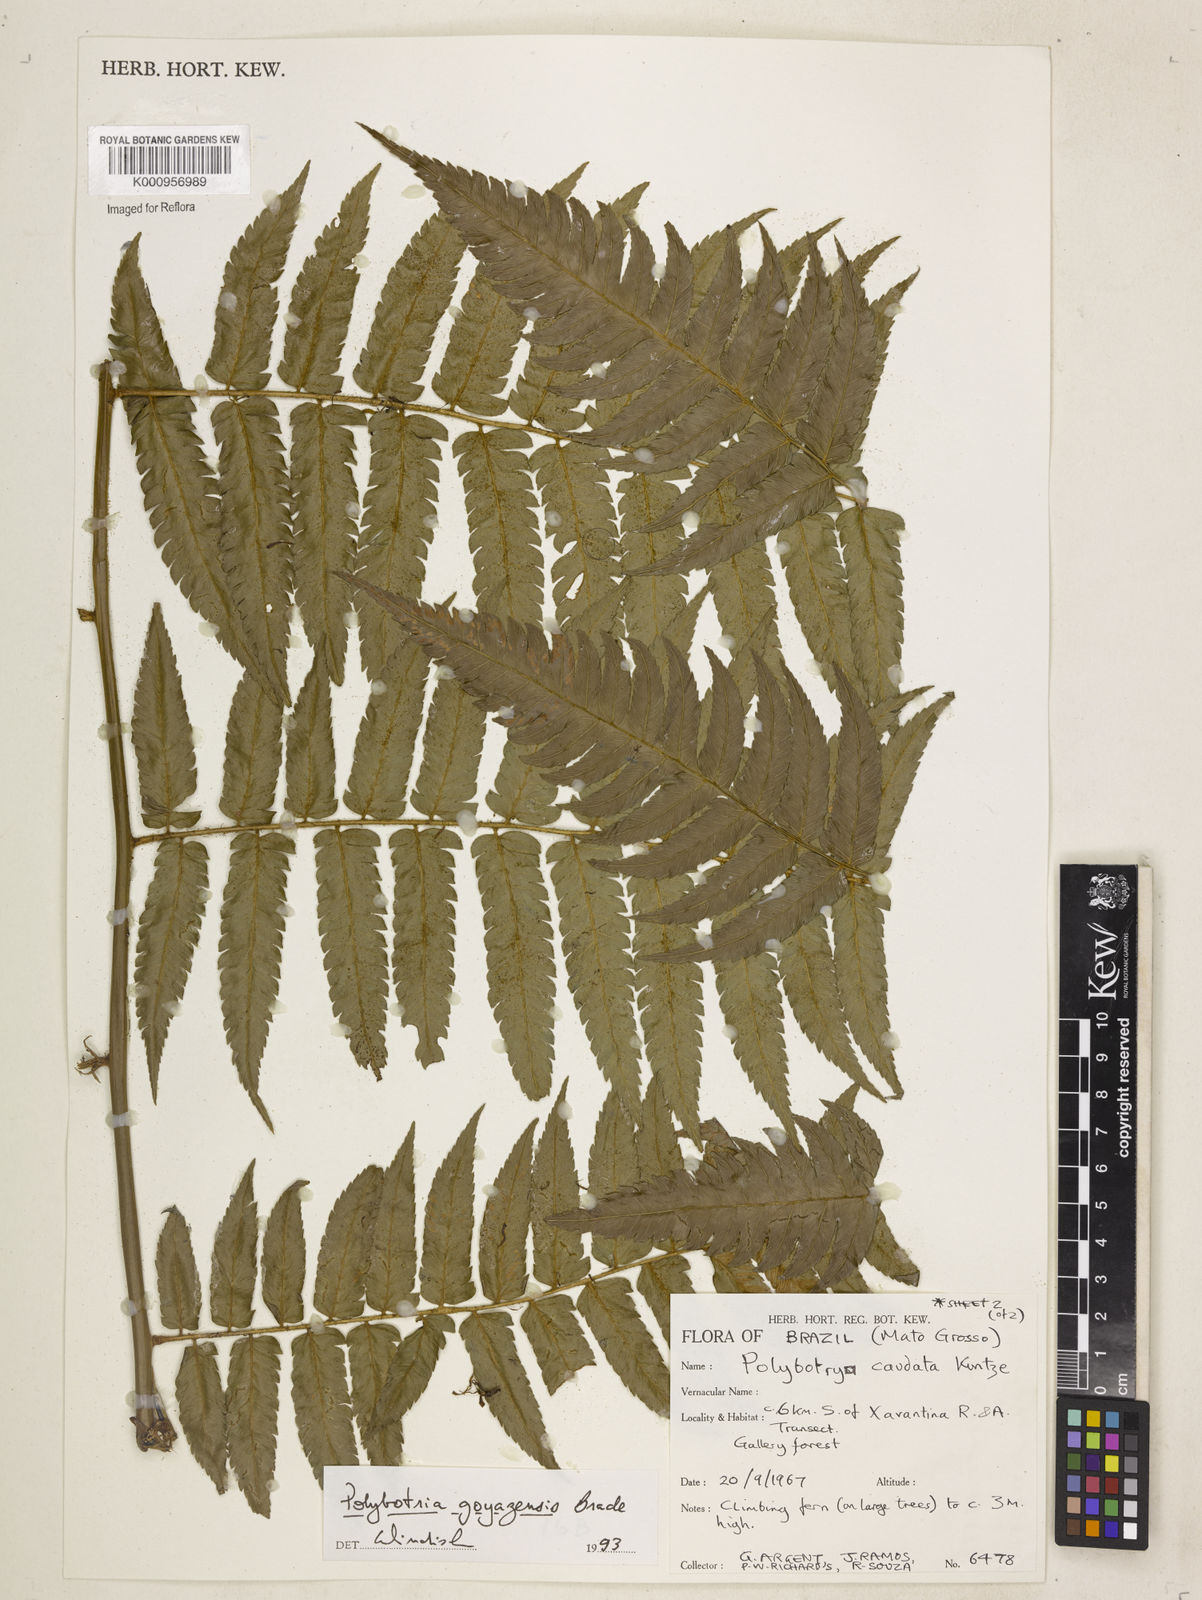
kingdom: Plantae
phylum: Tracheophyta
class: Polypodiopsida
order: Polypodiales
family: Dryopteridaceae
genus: Polybotrya
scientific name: Polybotrya goyazensis
